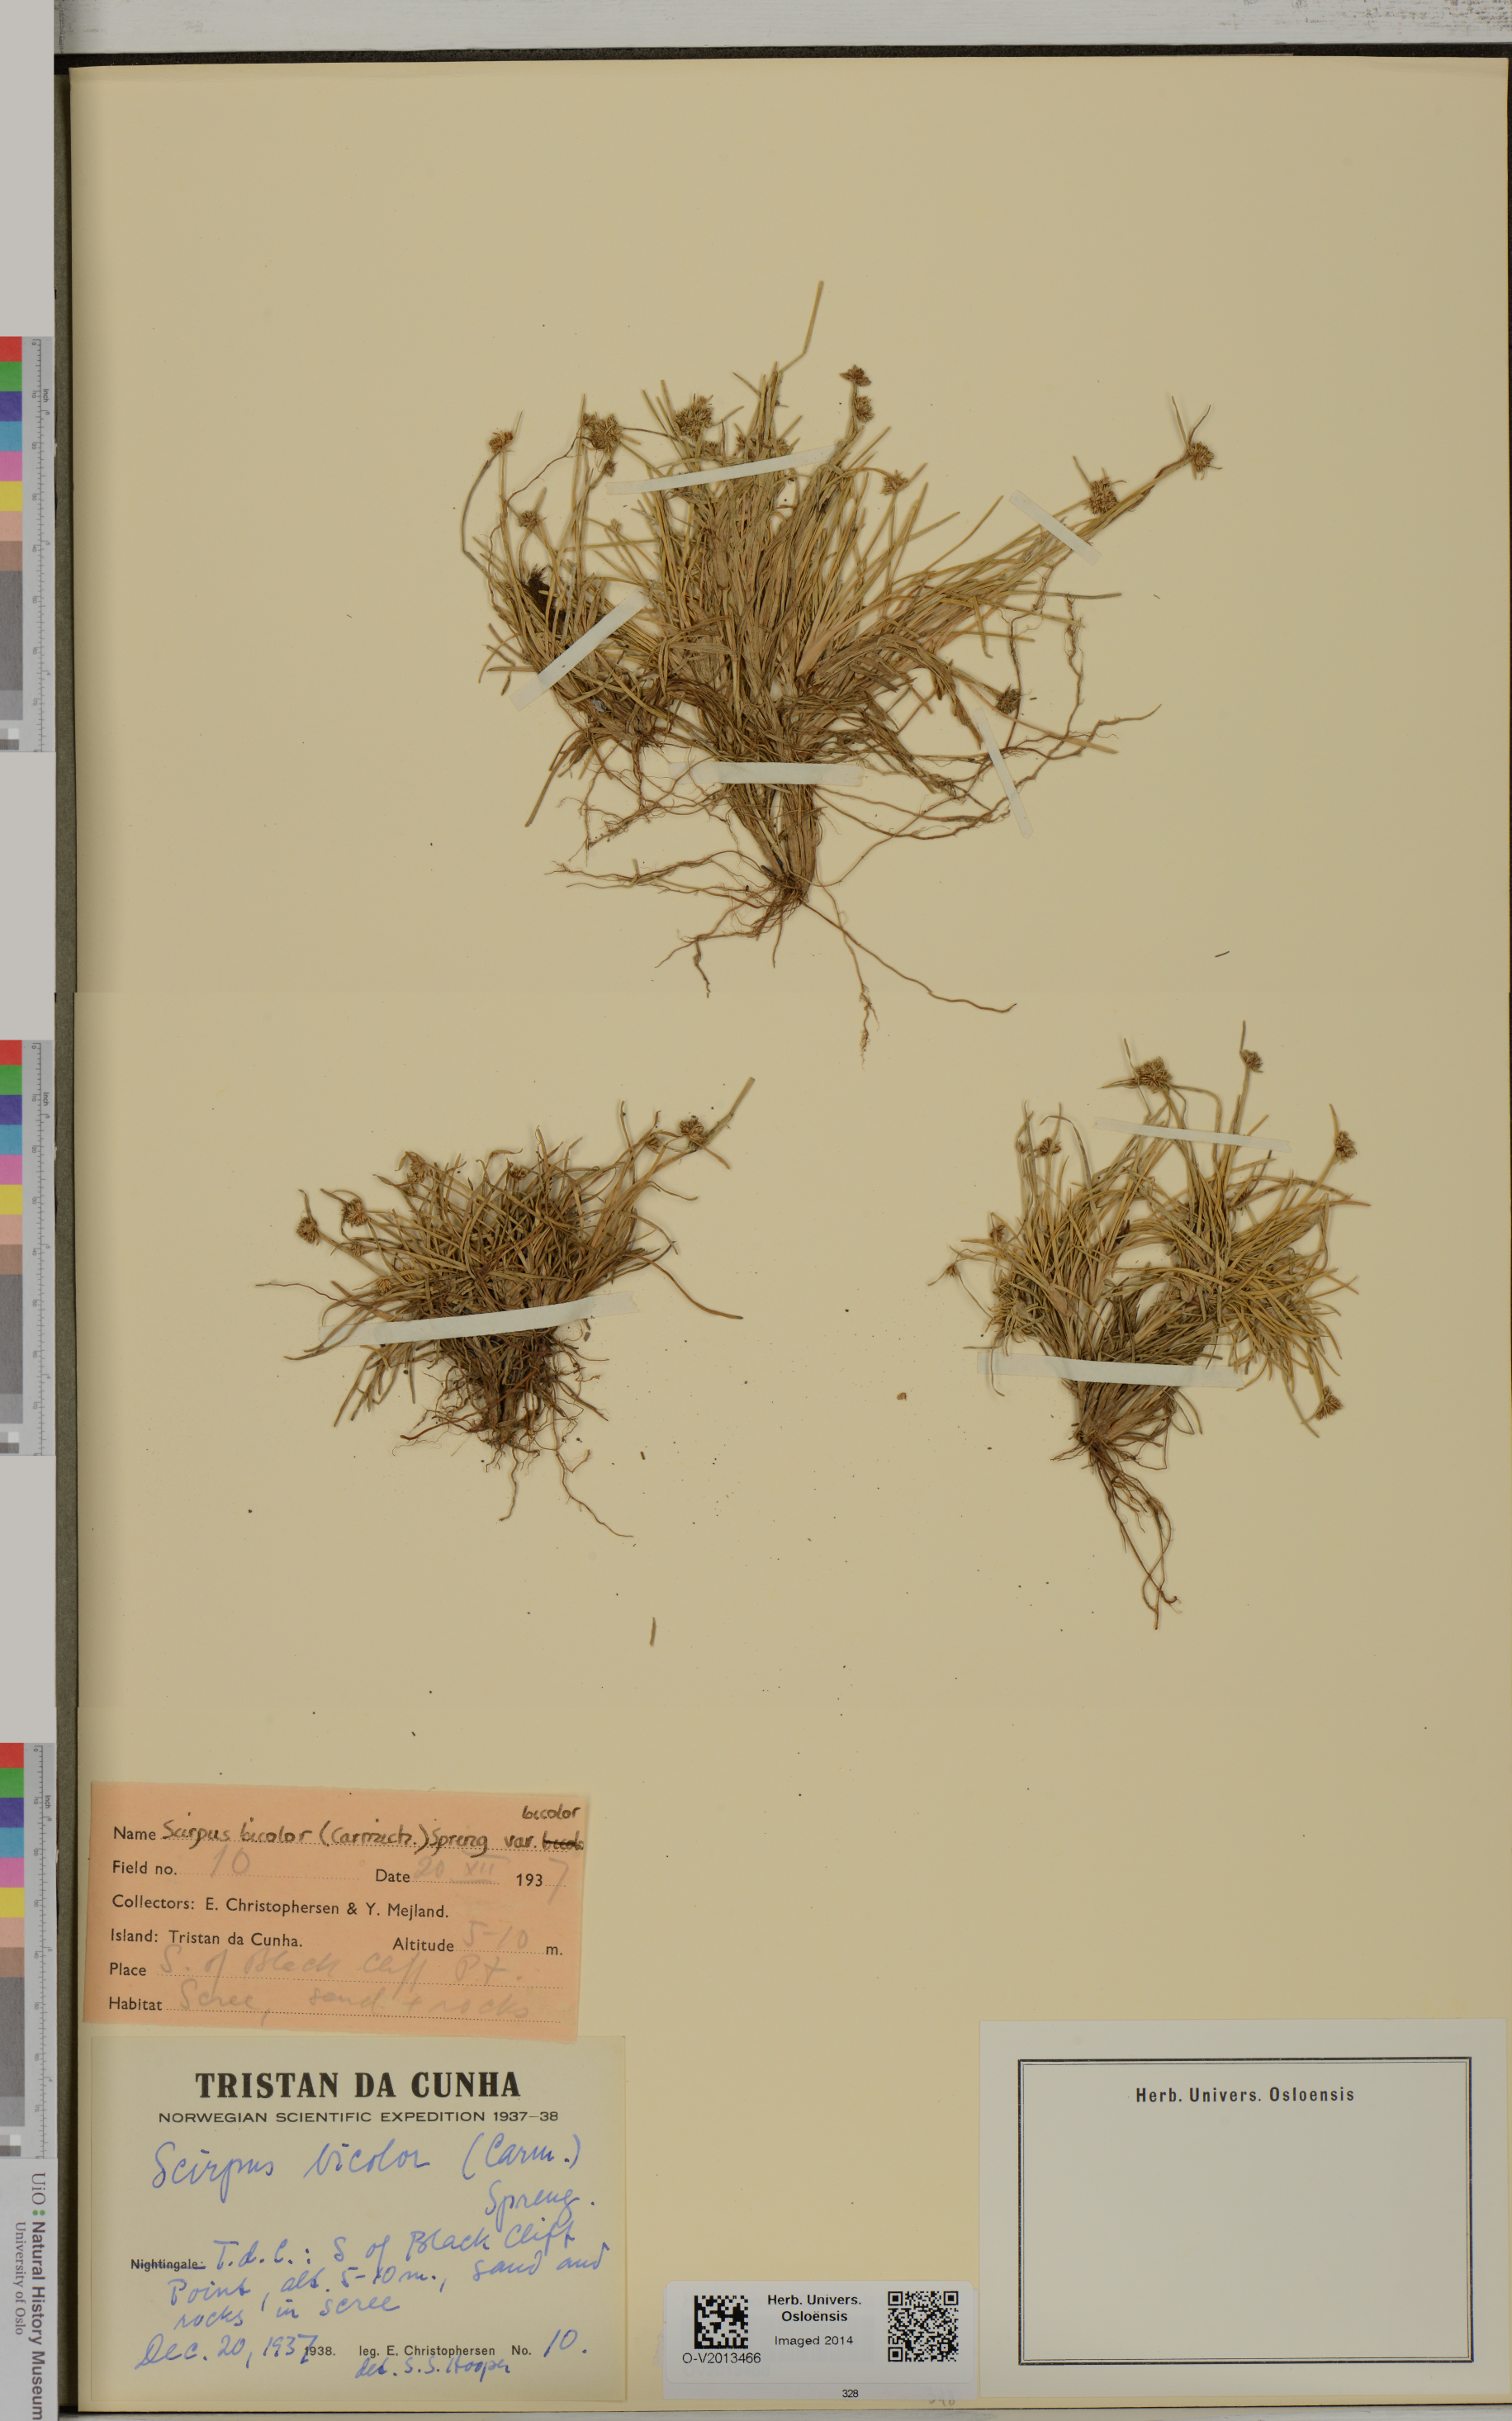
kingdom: Plantae
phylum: Tracheophyta
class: Liliopsida
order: Poales
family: Cyperaceae
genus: Isolepis
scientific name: Isolepis bicolor
